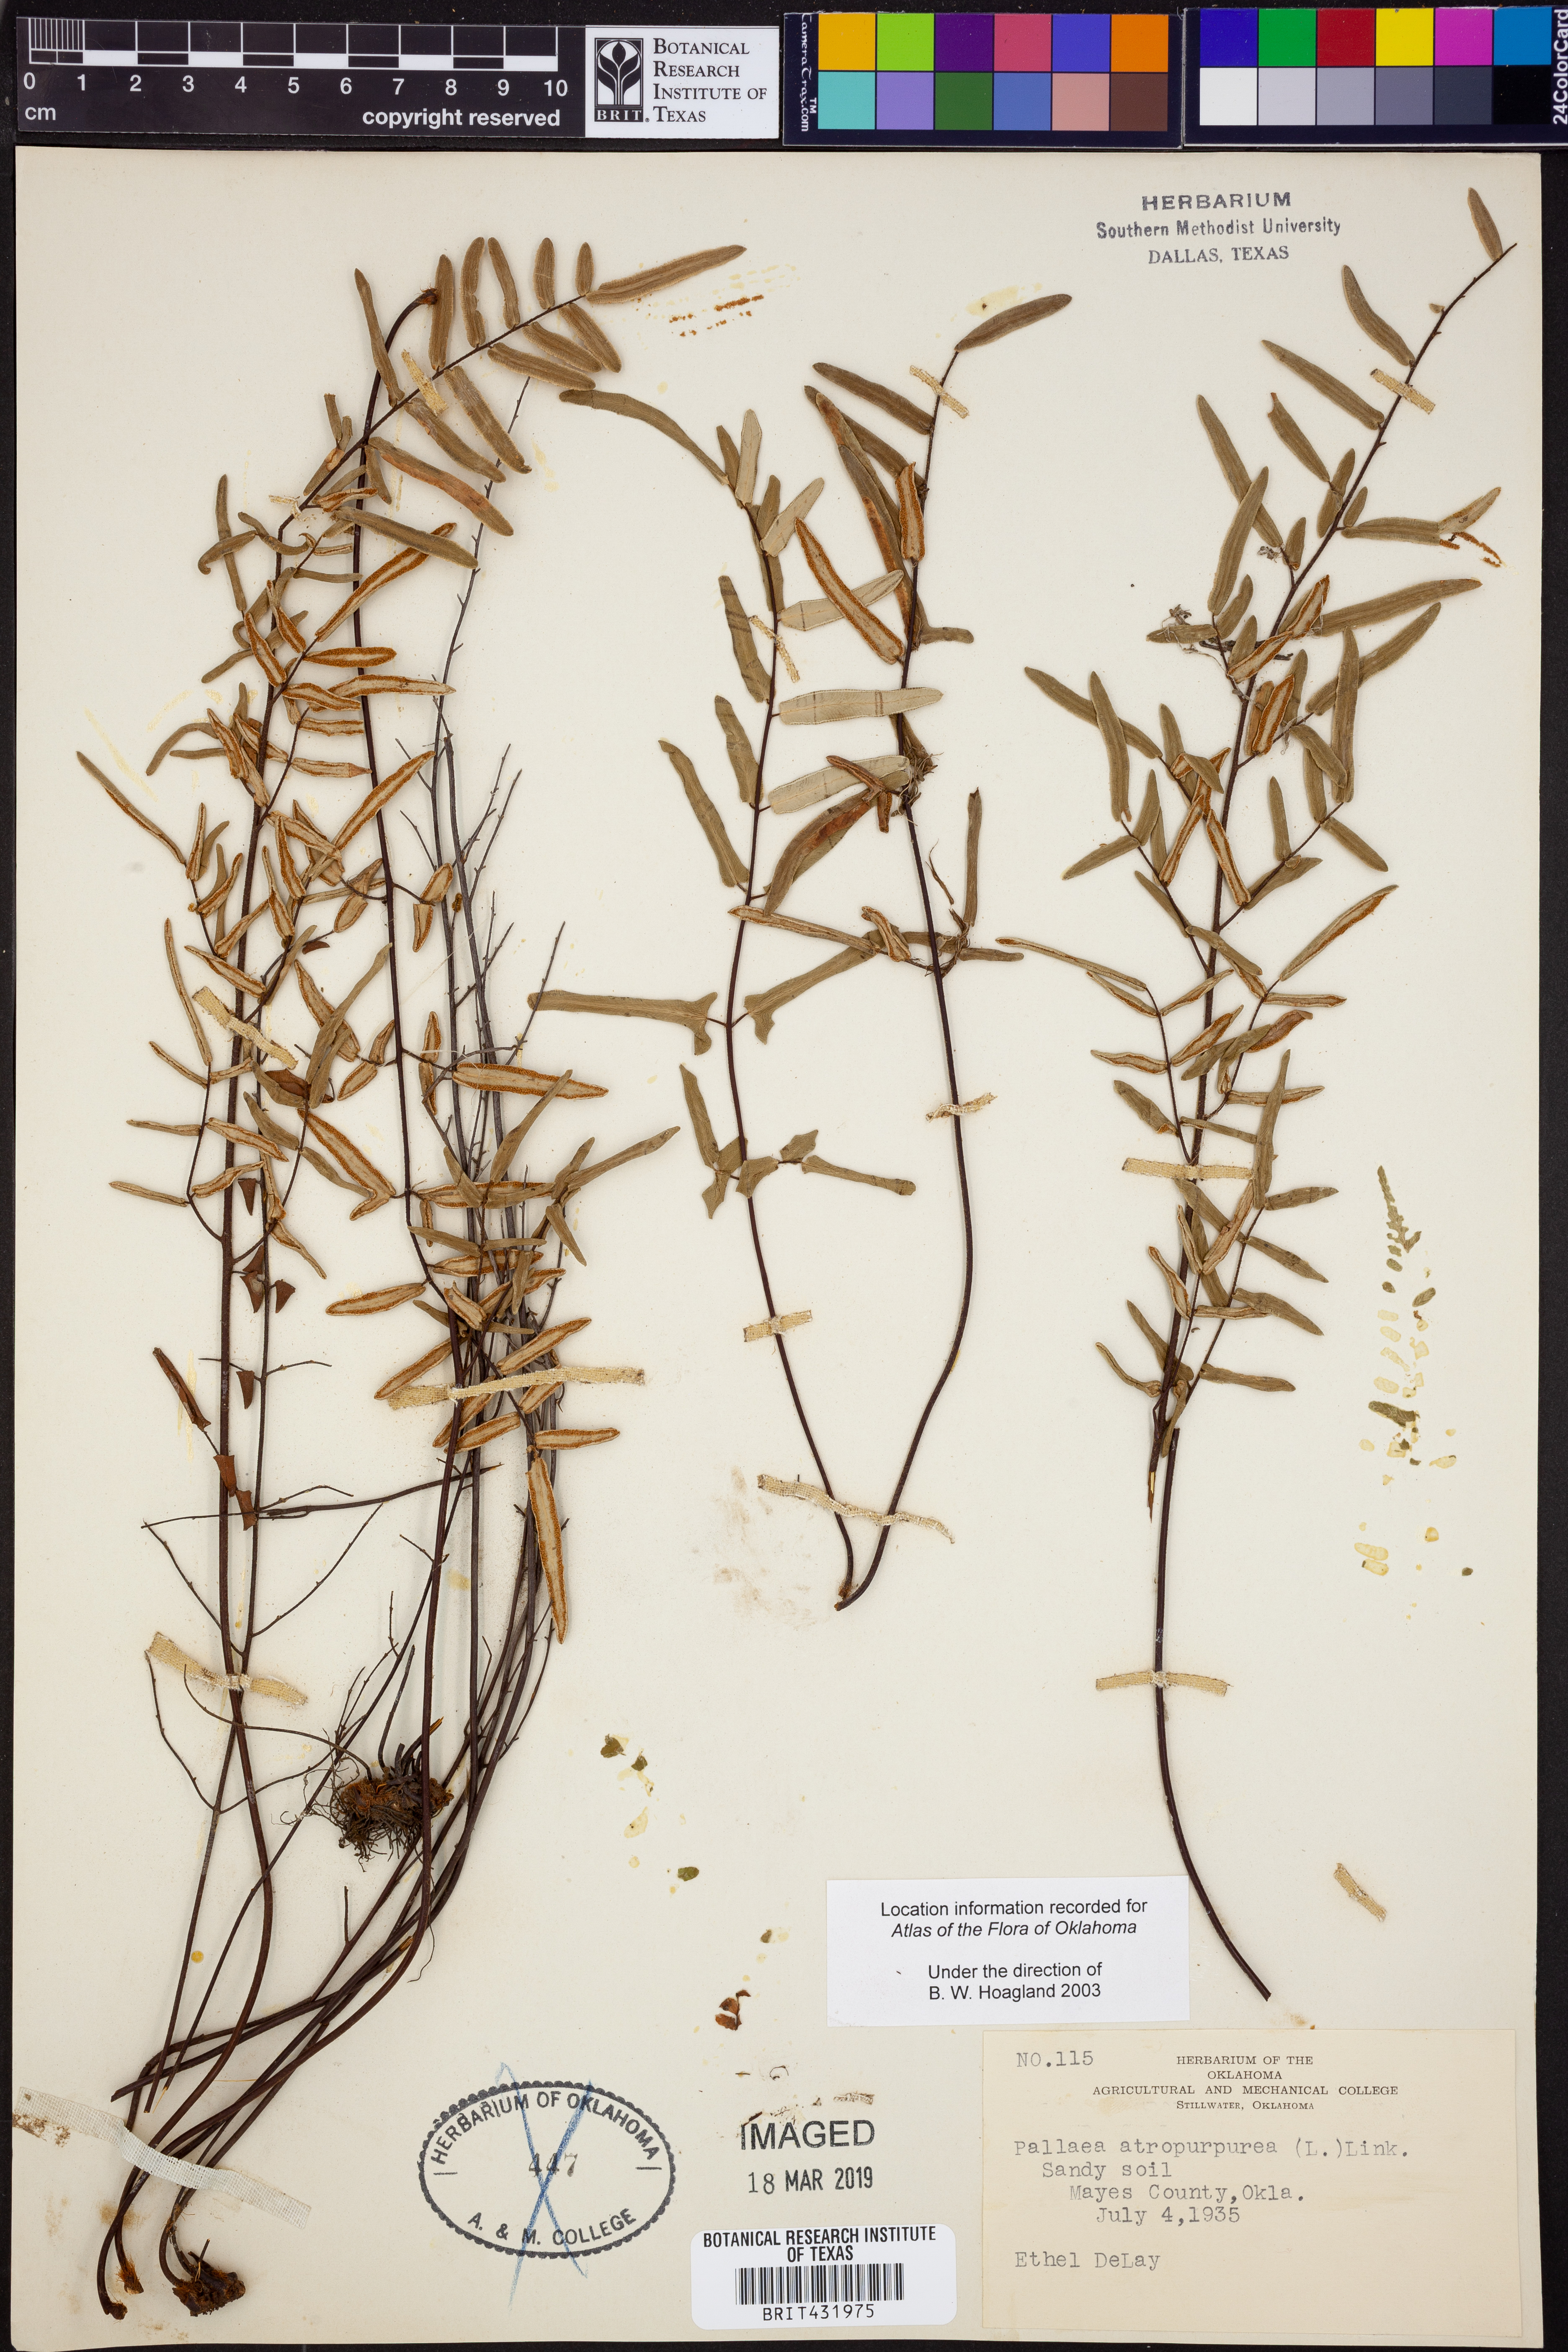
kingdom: Plantae
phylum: Tracheophyta
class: Polypodiopsida
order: Polypodiales
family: Pteridaceae
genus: Pellaea
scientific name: Pellaea atropurpurea
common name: Hairy cliffbrake
